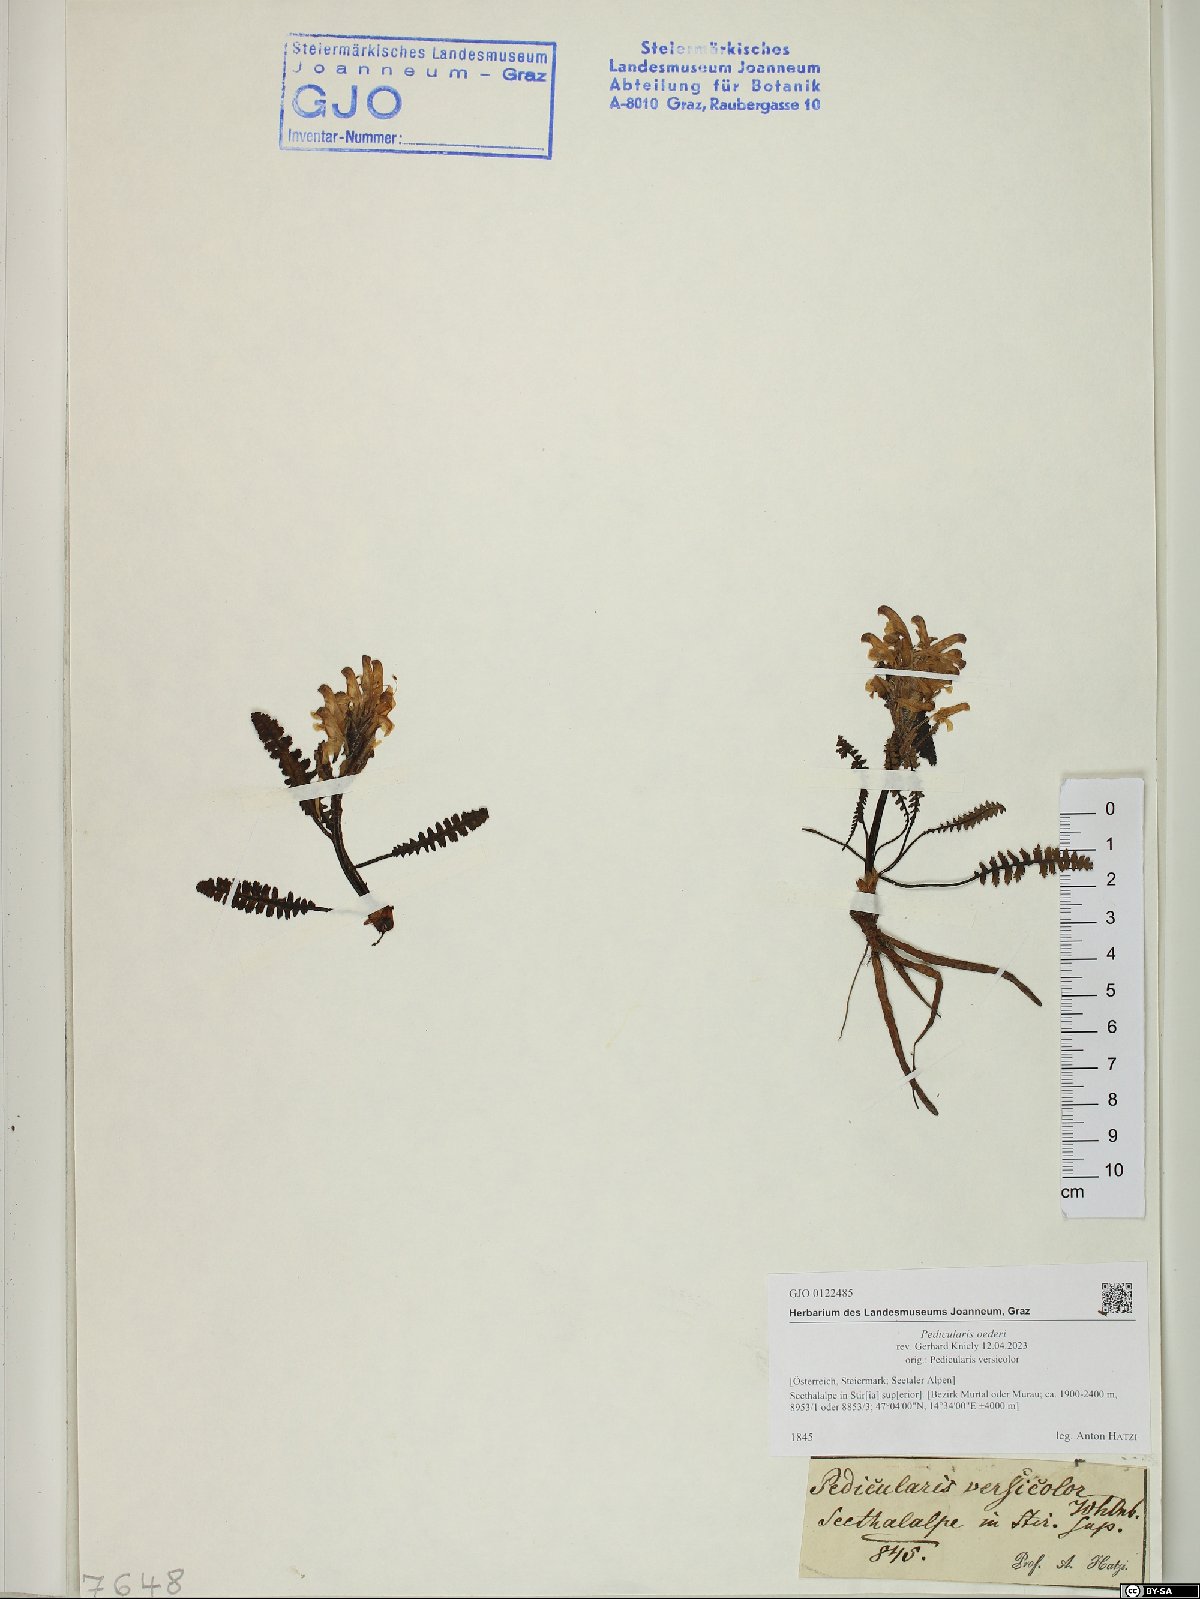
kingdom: Plantae
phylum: Tracheophyta
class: Magnoliopsida
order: Lamiales
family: Orobanchaceae
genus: Pedicularis
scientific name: Pedicularis oederi
